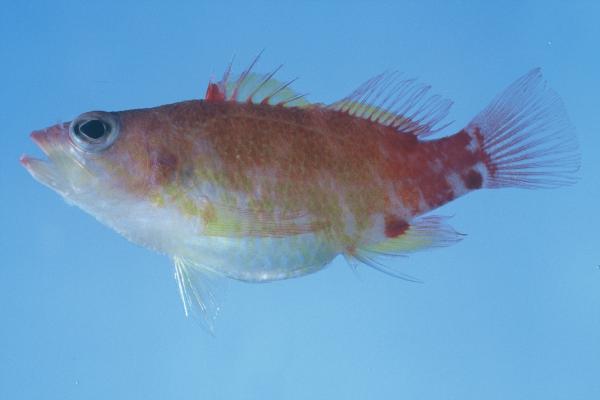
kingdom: Animalia
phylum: Chordata
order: Perciformes
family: Serranidae
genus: Plectranthias
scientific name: Plectranthias winniensis
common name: Redblotch perchlet
